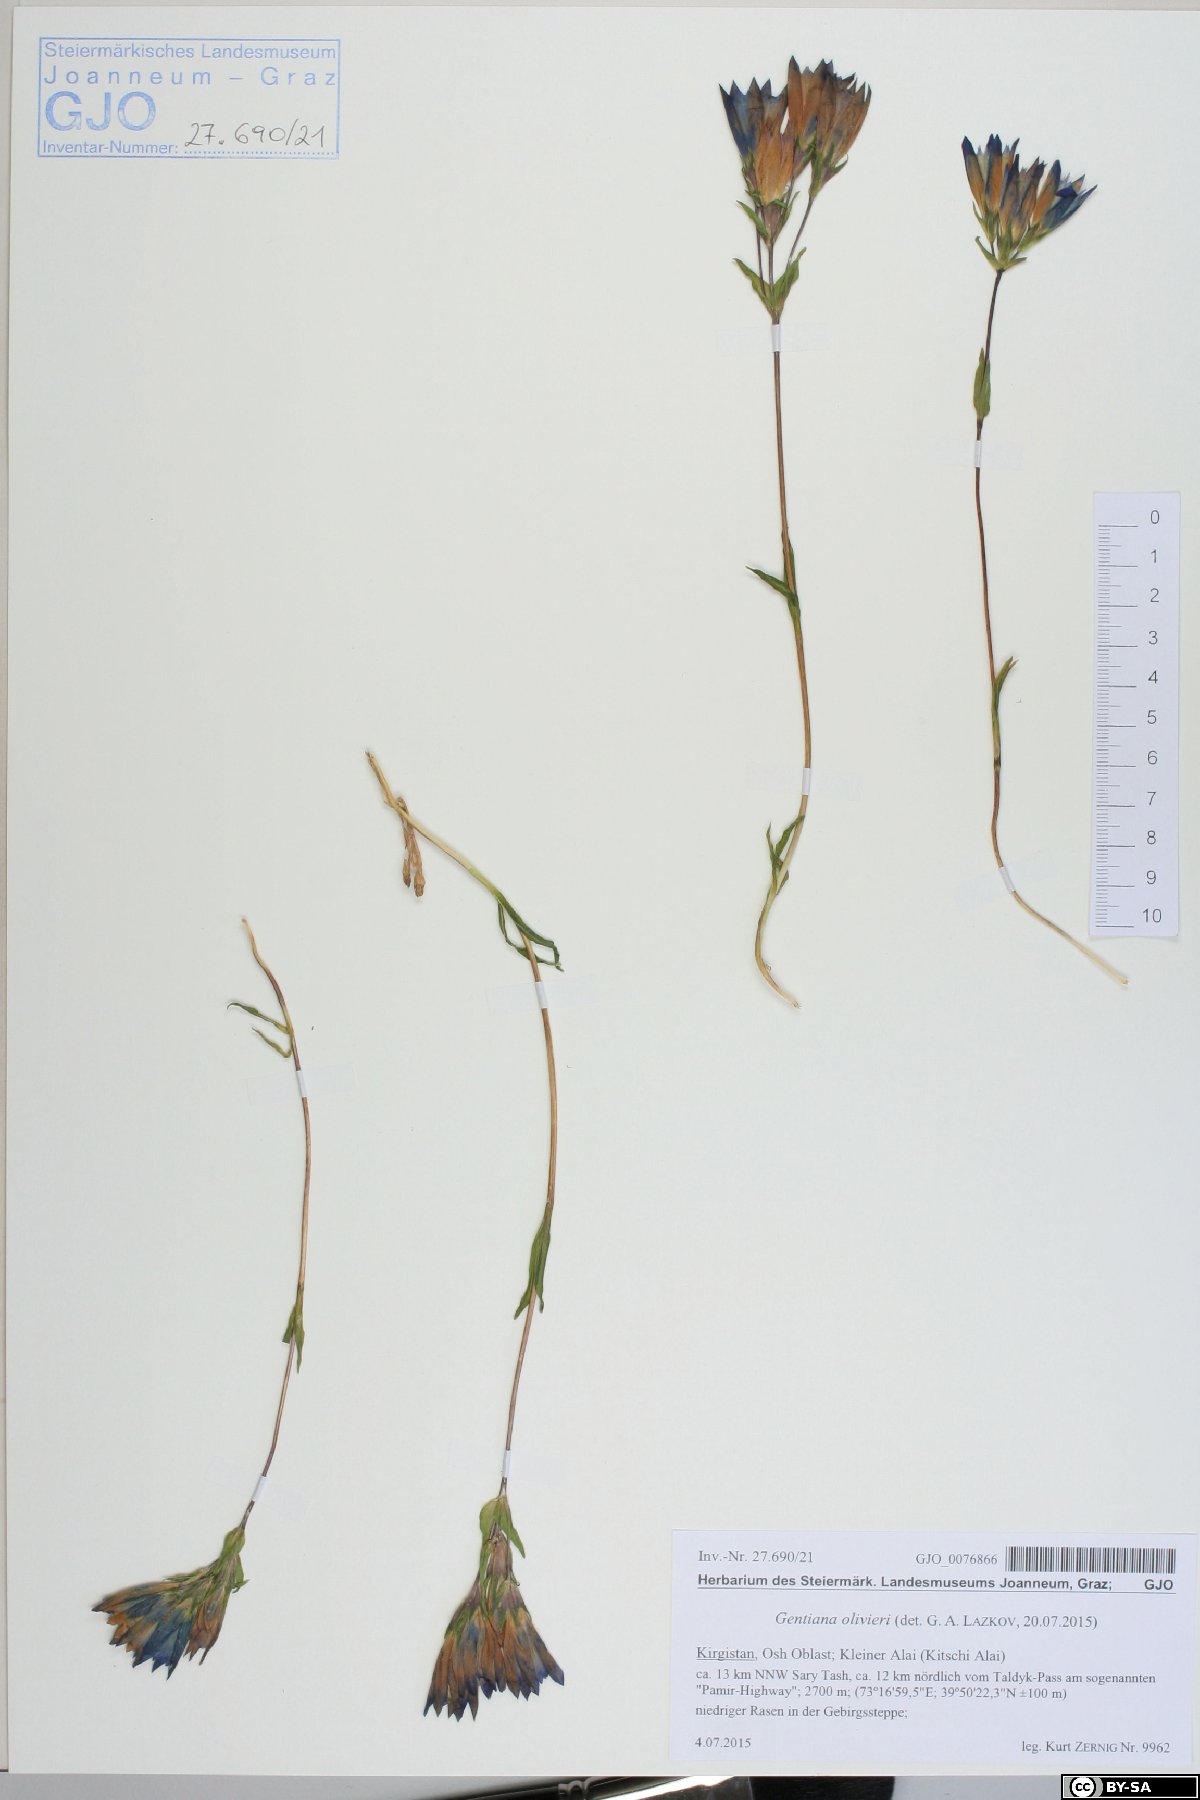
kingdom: Plantae
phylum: Tracheophyta
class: Magnoliopsida
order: Gentianales
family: Gentianaceae
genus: Gentiana
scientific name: Gentiana olivieri
